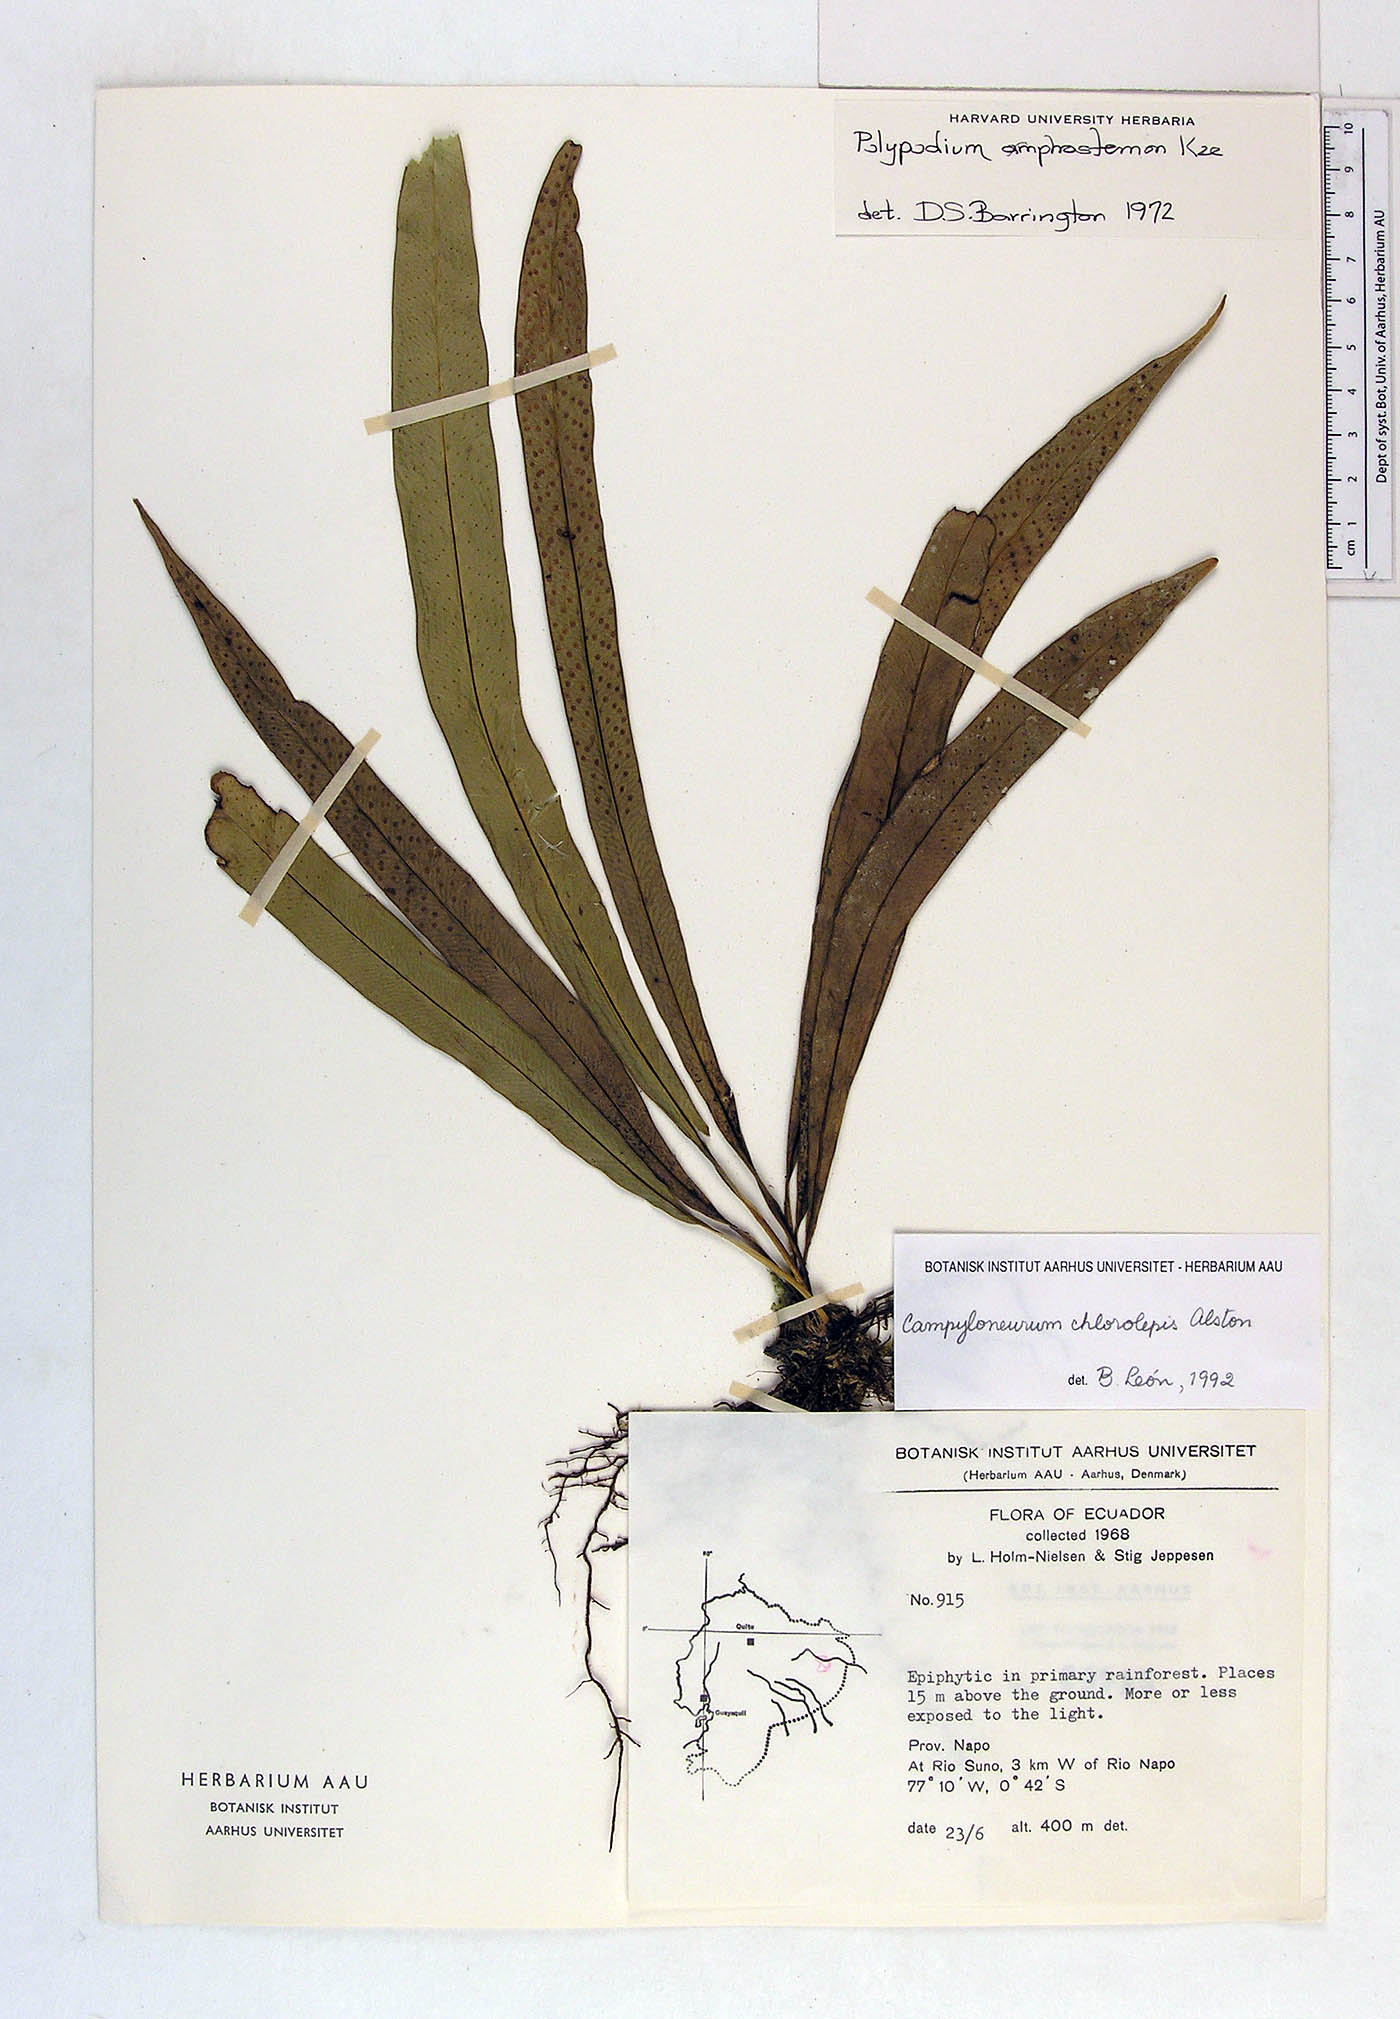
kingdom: Plantae
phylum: Tracheophyta
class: Polypodiopsida
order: Polypodiales
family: Polypodiaceae
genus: Campyloneurum
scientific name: Campyloneurum angustifolium
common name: Narrow-leaf strap fern
